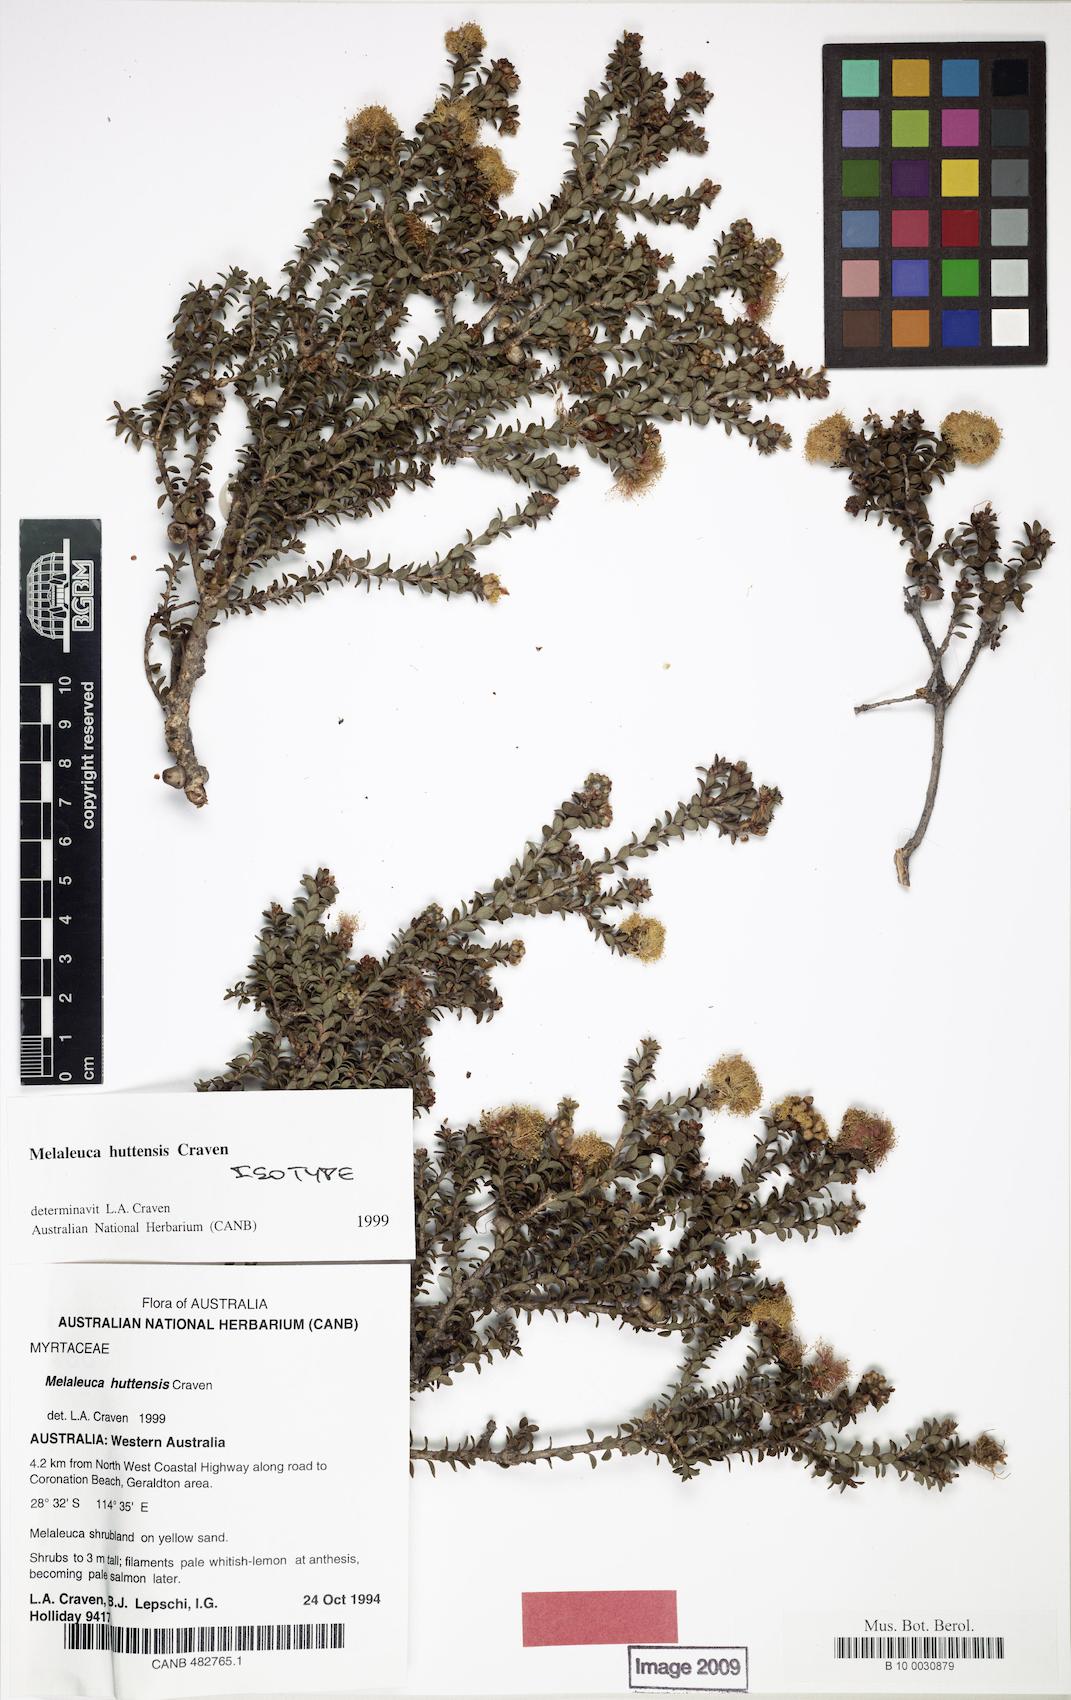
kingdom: Plantae
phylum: Tracheophyta
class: Magnoliopsida
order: Myrtales
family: Myrtaceae
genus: Melaleuca
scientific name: Melaleuca huttensis
